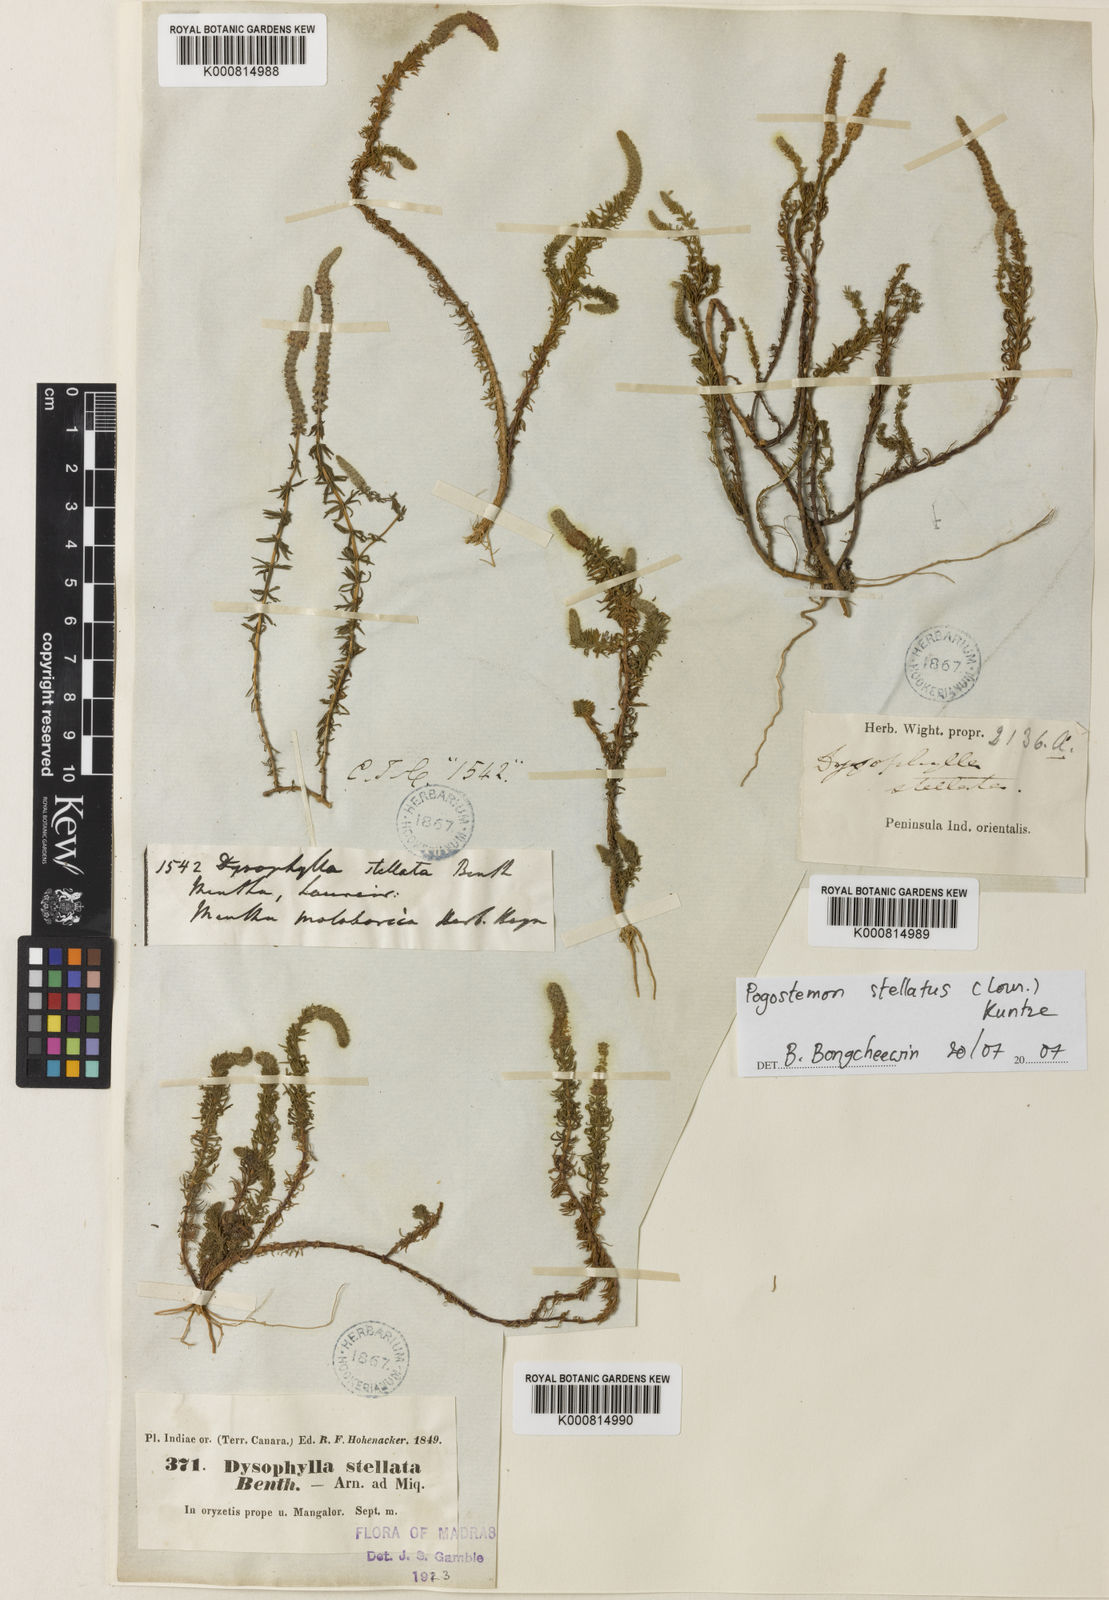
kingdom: Plantae
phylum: Tracheophyta
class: Magnoliopsida
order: Lamiales
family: Lamiaceae
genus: Pogostemon
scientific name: Pogostemon stellatus
